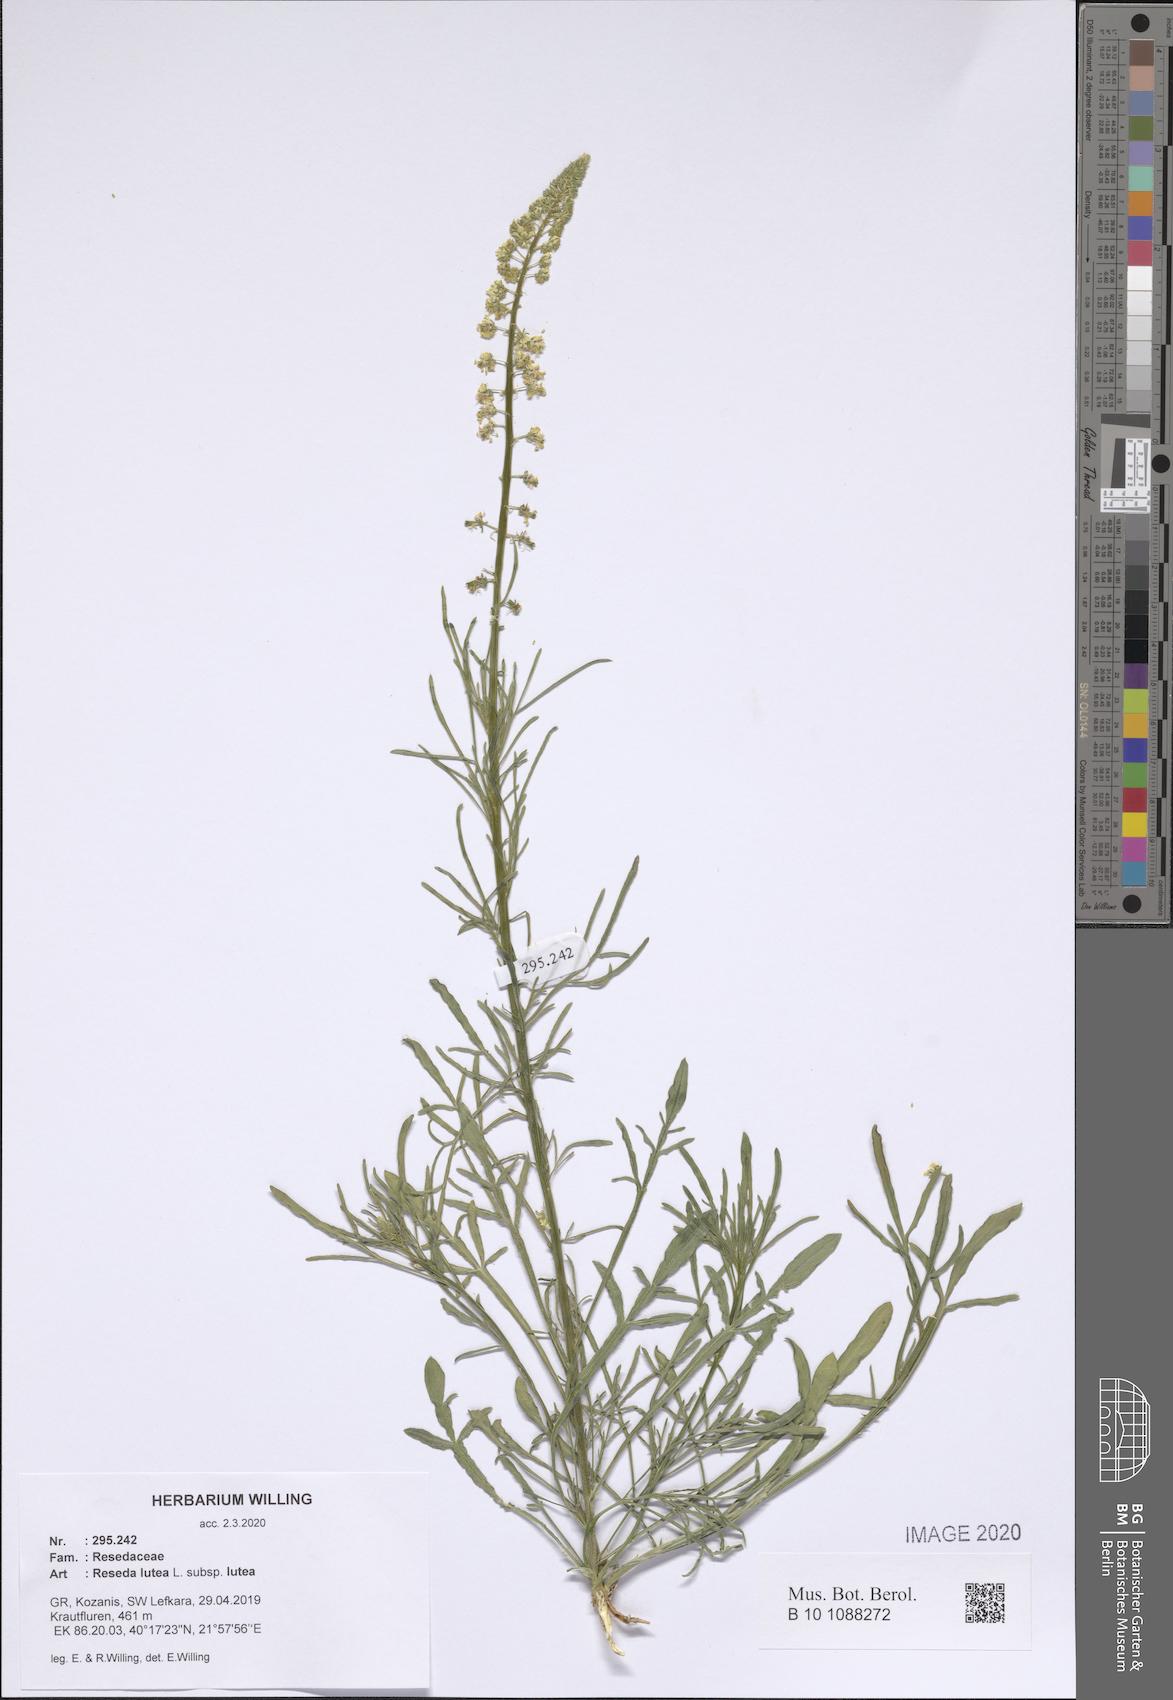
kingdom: Plantae
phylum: Tracheophyta
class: Magnoliopsida
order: Brassicales
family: Resedaceae
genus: Reseda
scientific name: Reseda lutea
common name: Wild mignonette
